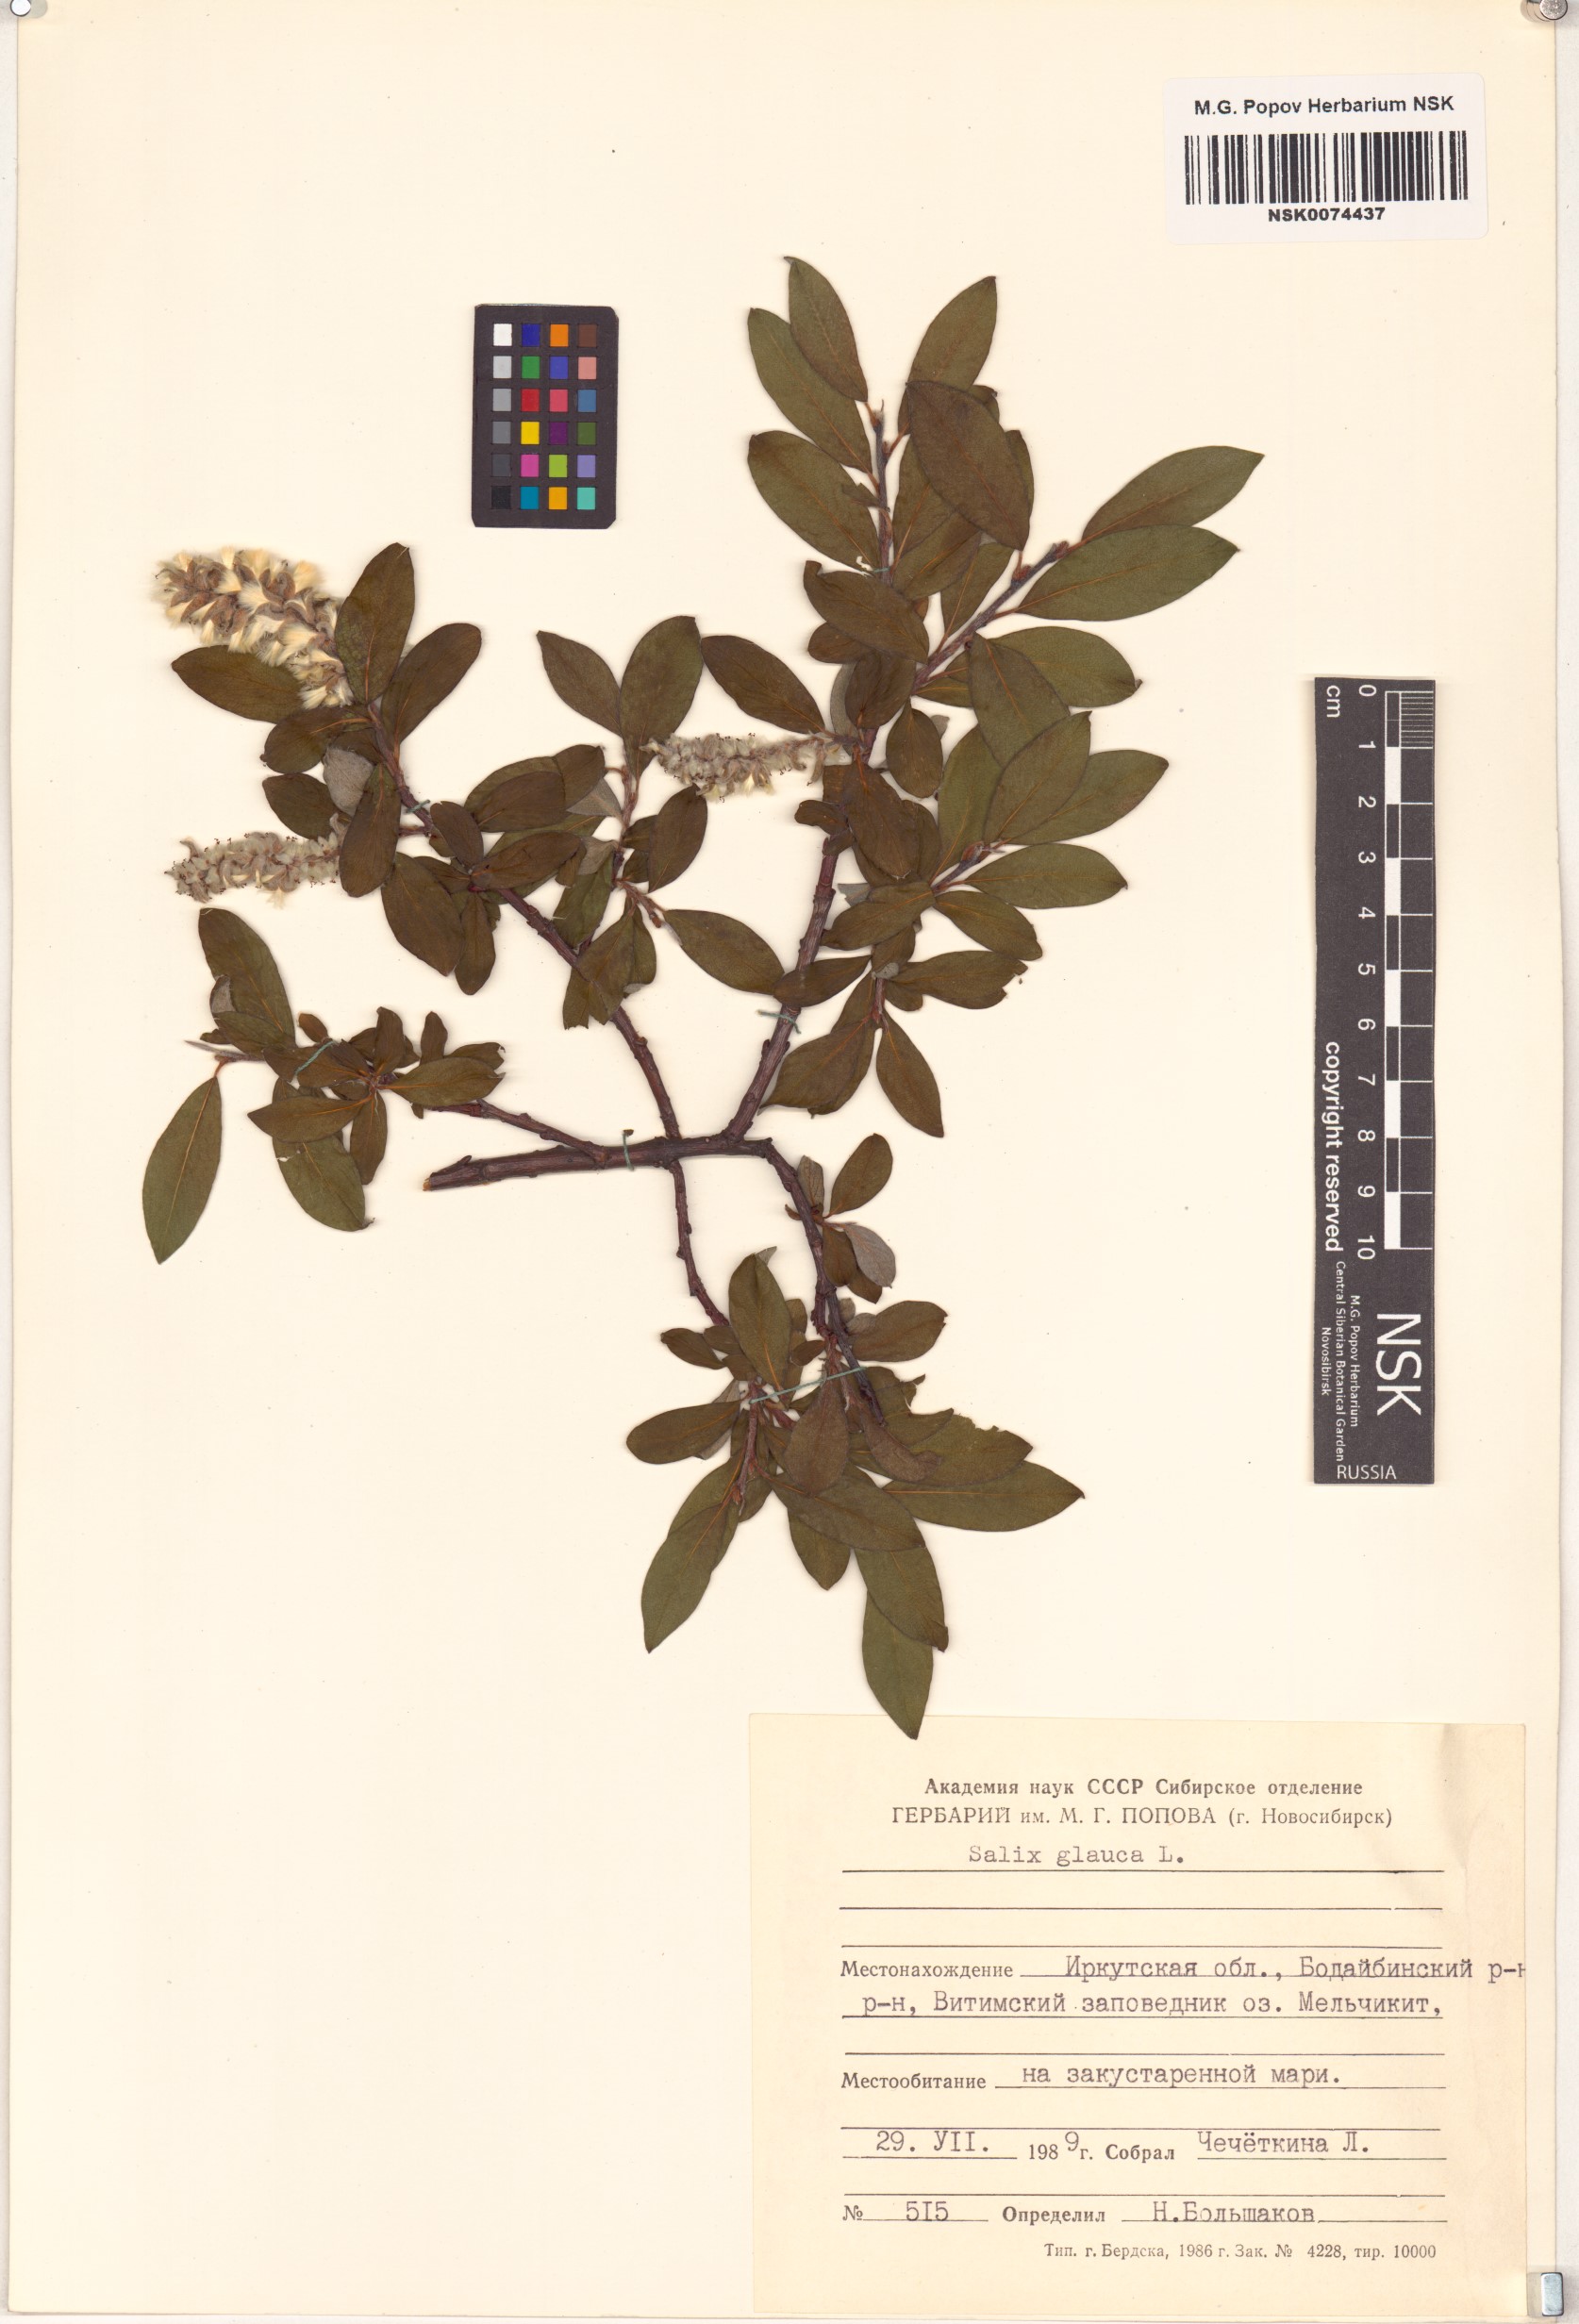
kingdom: Plantae
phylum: Tracheophyta
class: Magnoliopsida
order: Malpighiales
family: Salicaceae
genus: Salix
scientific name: Salix glauca
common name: Glaucous willow
